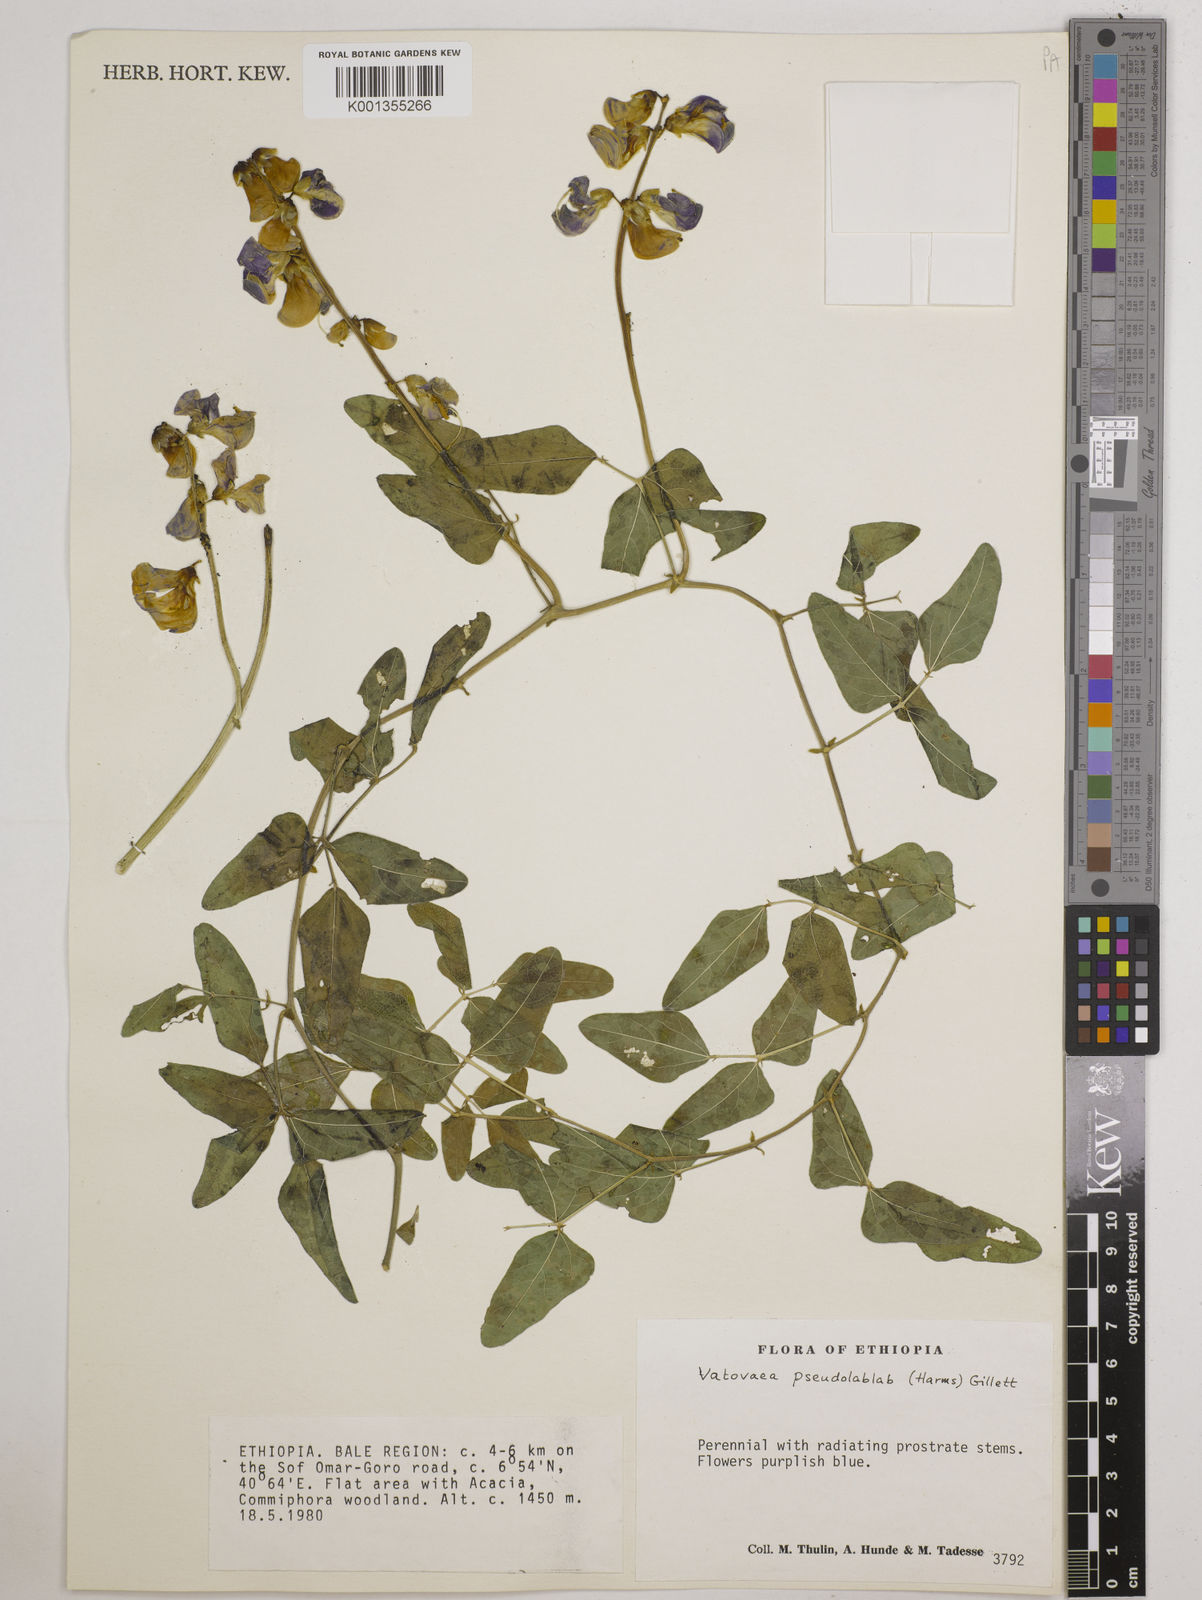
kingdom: Plantae
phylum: Tracheophyta
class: Magnoliopsida
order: Fabales
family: Fabaceae
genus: Vatovaea
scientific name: Vatovaea pseudolablab
